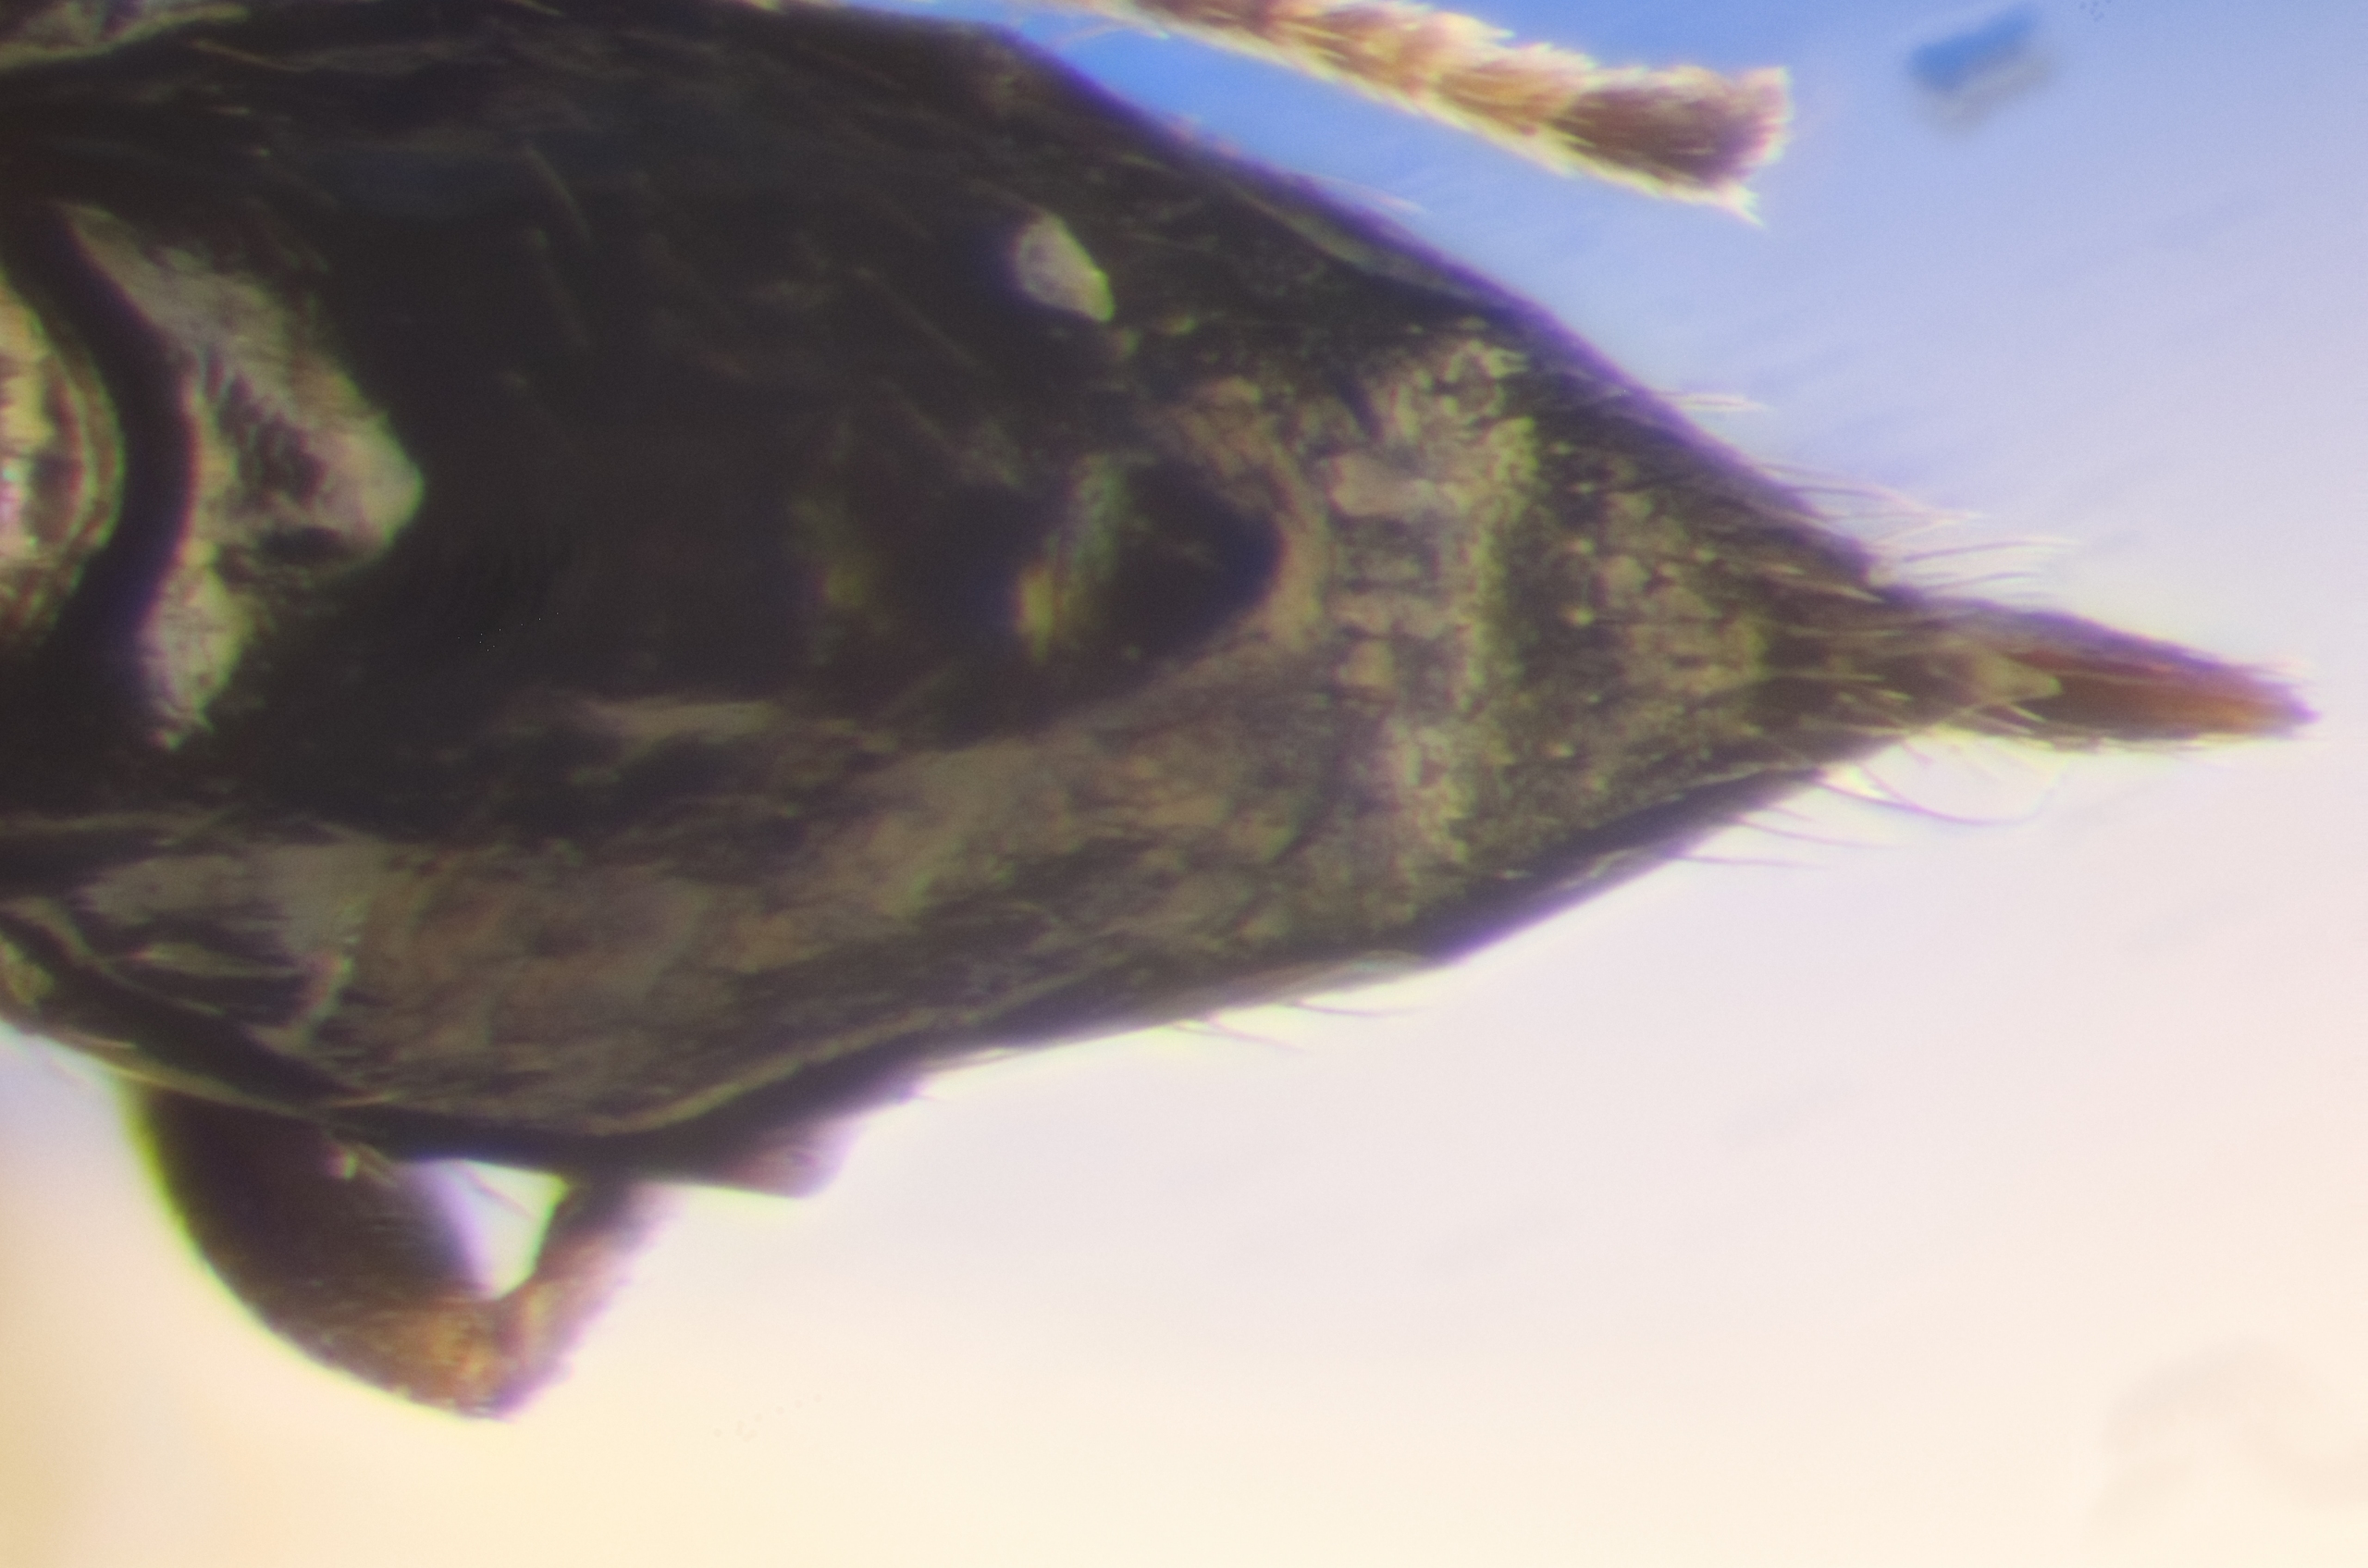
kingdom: Animalia
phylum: Arthropoda
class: Insecta
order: Hymenoptera
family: Encyrtidae
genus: Pseudencyrtus
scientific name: Pseudencyrtus misellus
